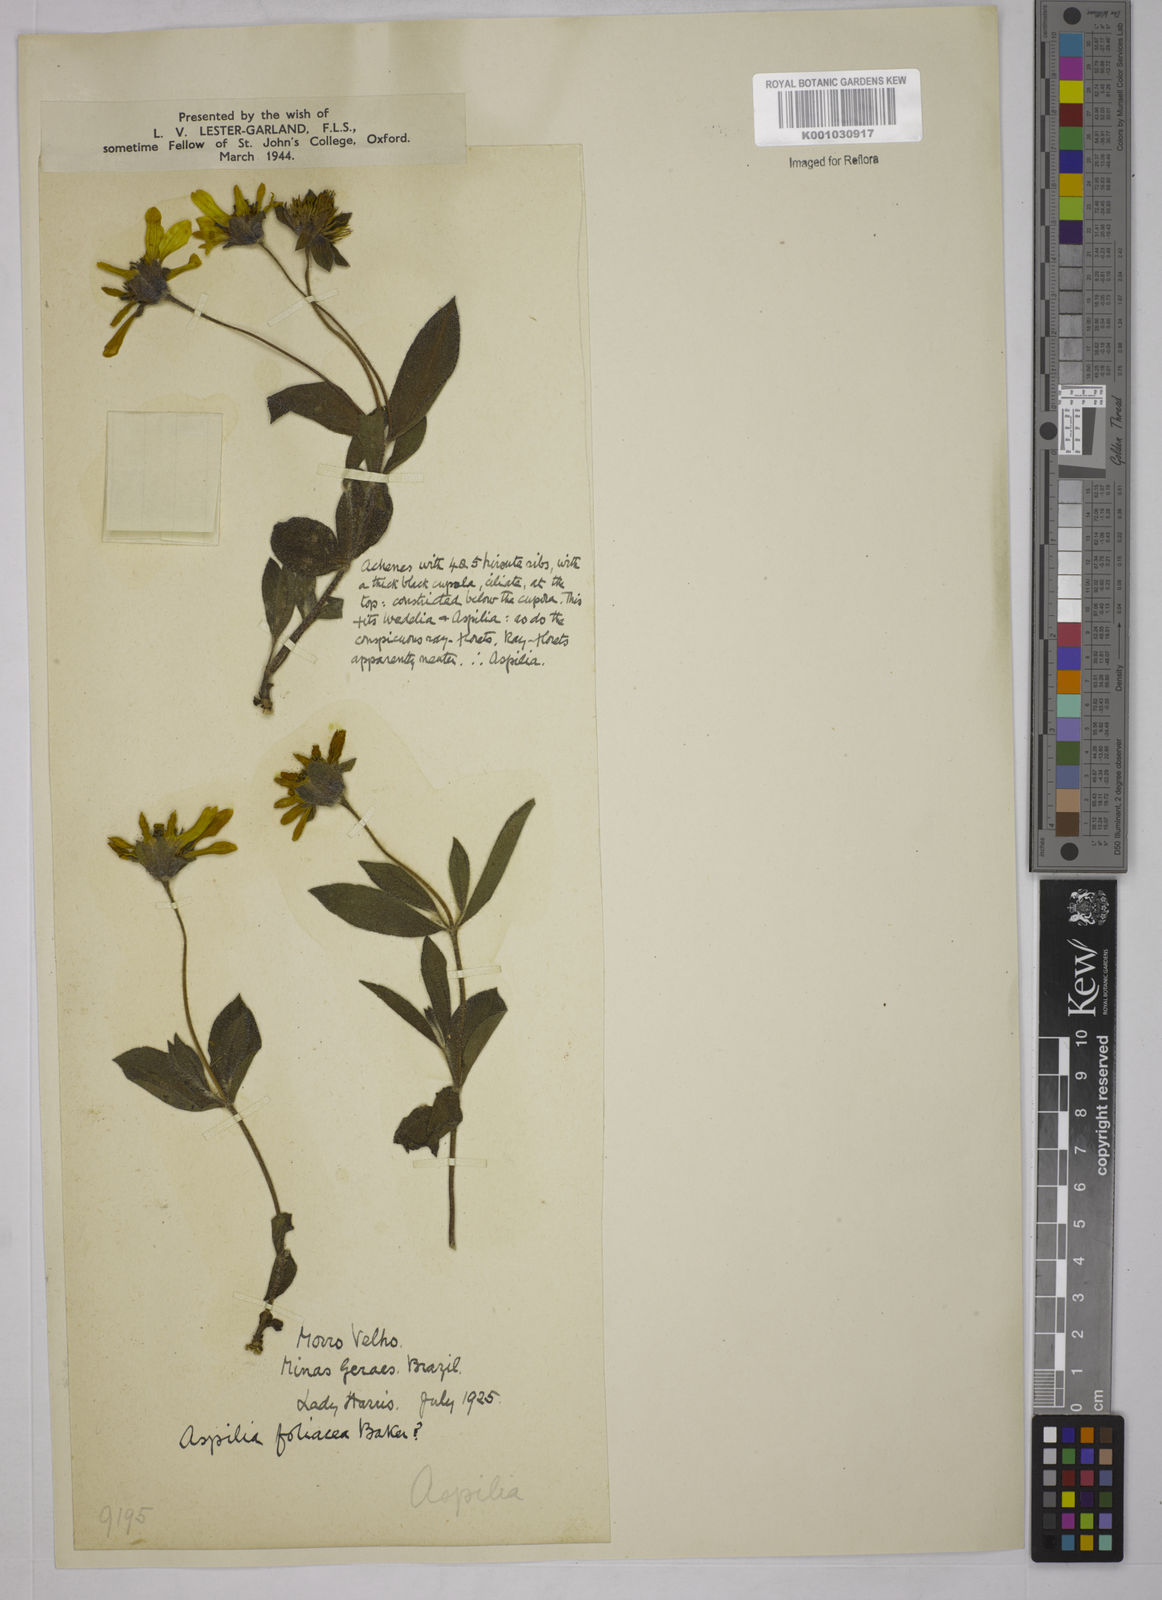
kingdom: Plantae
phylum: Tracheophyta
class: Magnoliopsida
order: Asterales
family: Asteraceae
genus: Wedelia
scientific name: Wedelia foliacea
